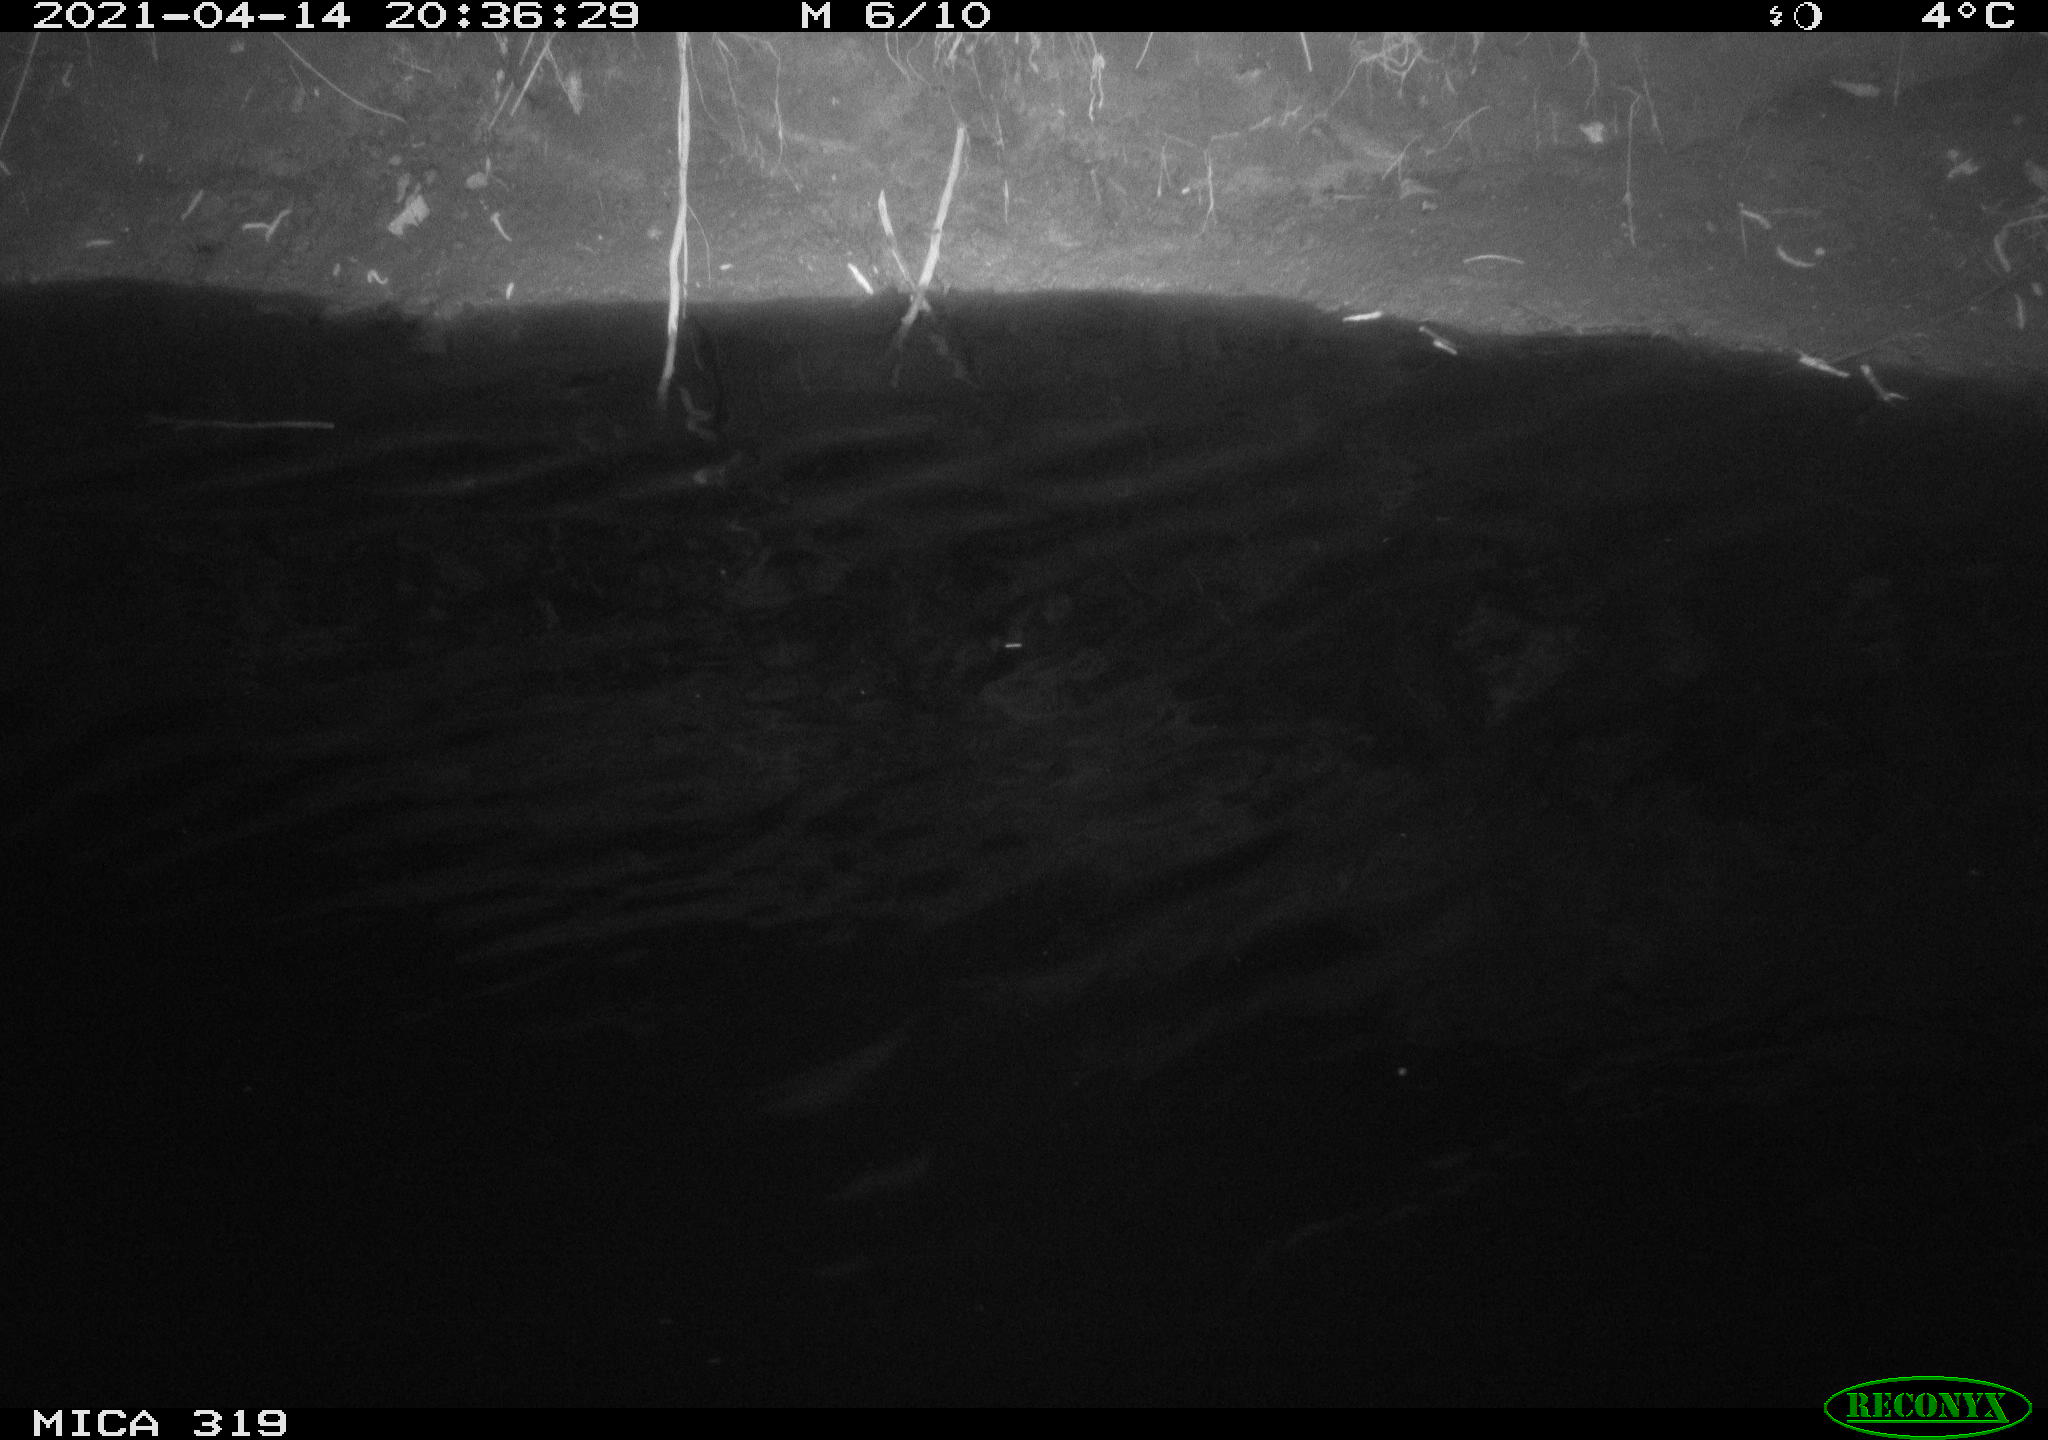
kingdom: Animalia
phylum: Chordata
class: Aves
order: Anseriformes
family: Anatidae
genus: Anas
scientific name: Anas platyrhynchos
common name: Mallard
